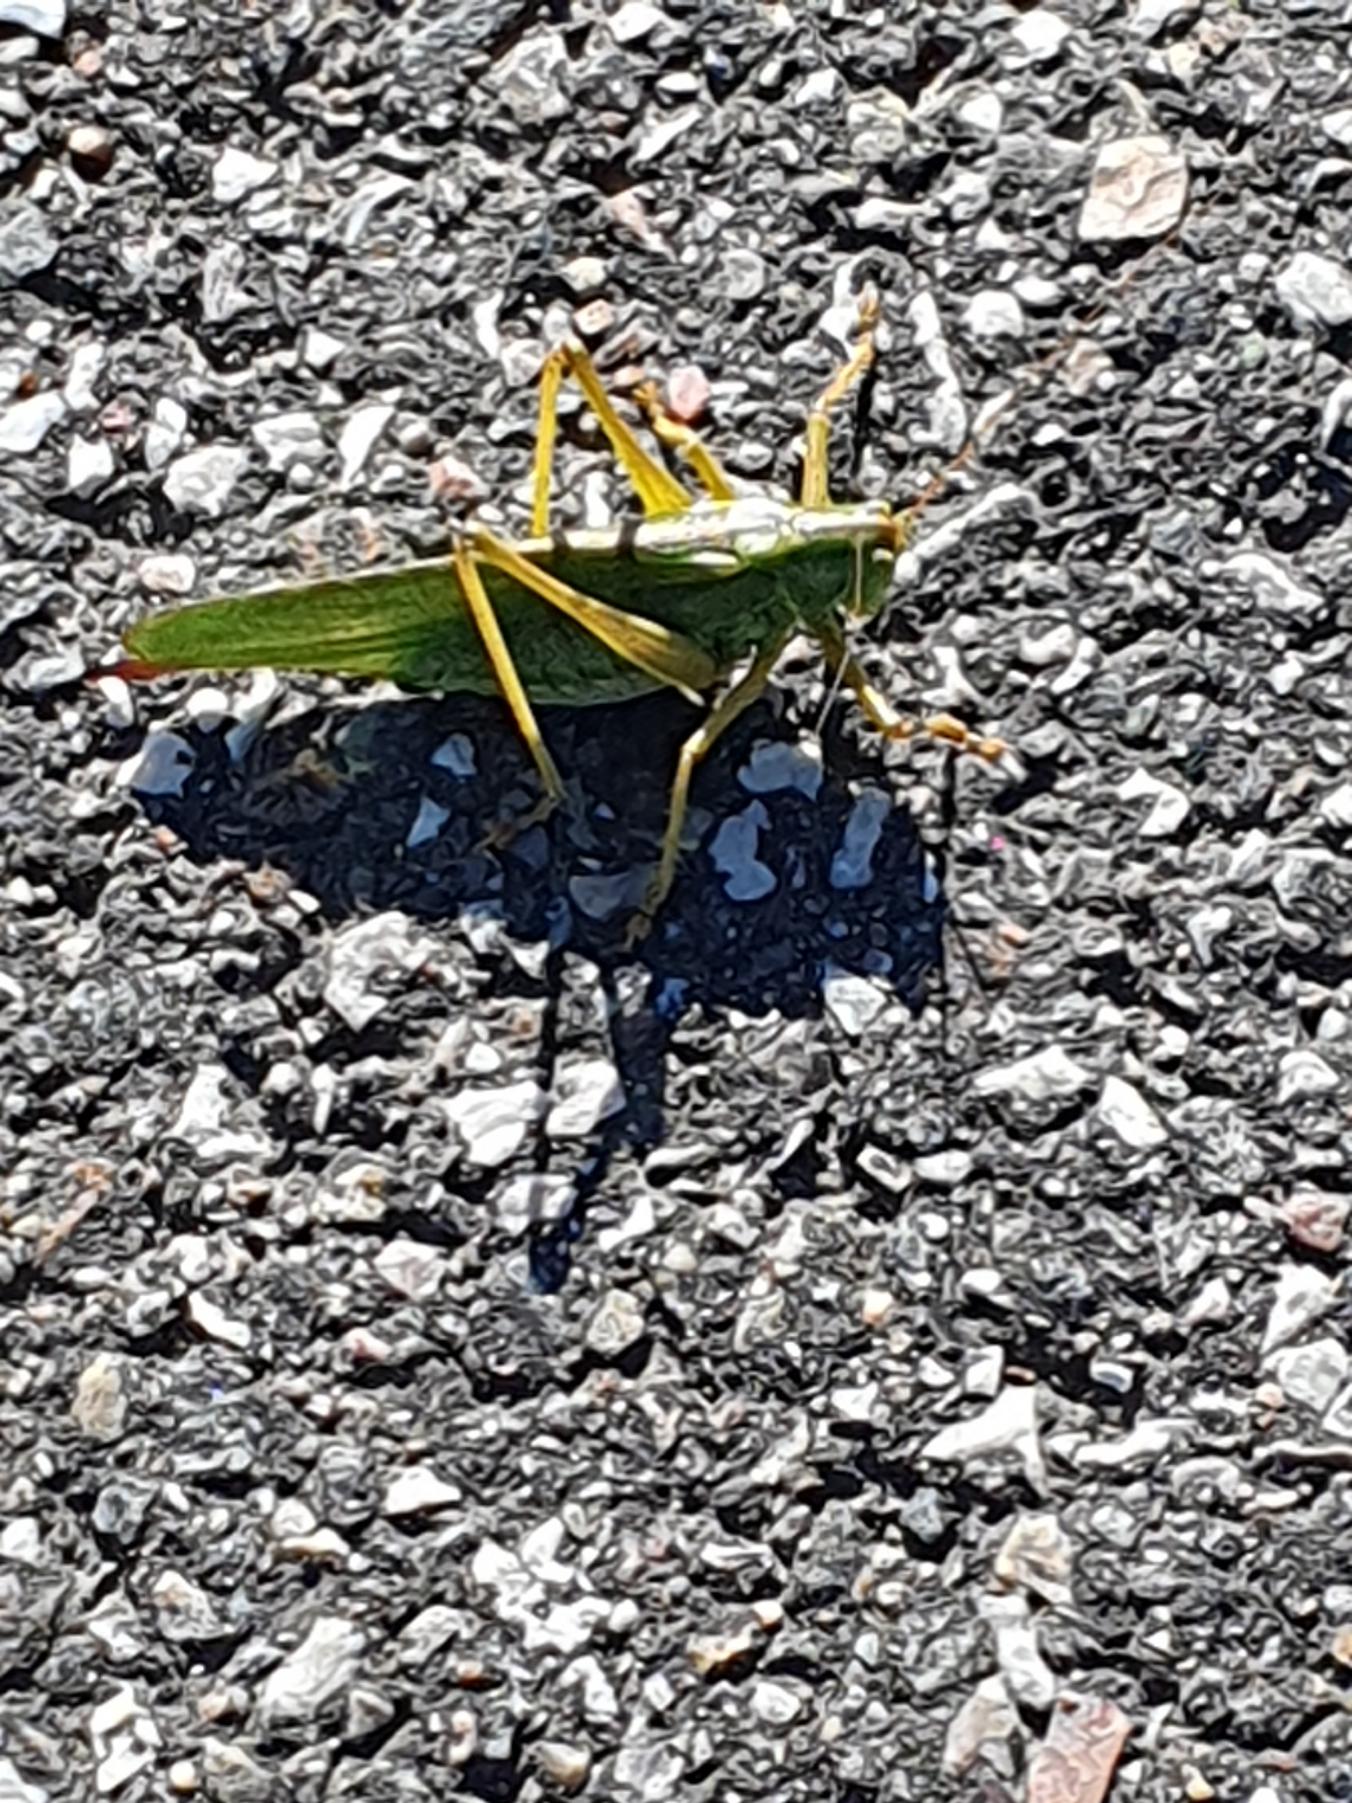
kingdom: Animalia
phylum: Arthropoda
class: Insecta
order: Orthoptera
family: Tettigoniidae
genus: Tettigonia
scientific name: Tettigonia viridissima
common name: Stor grøn løvgræshoppe
